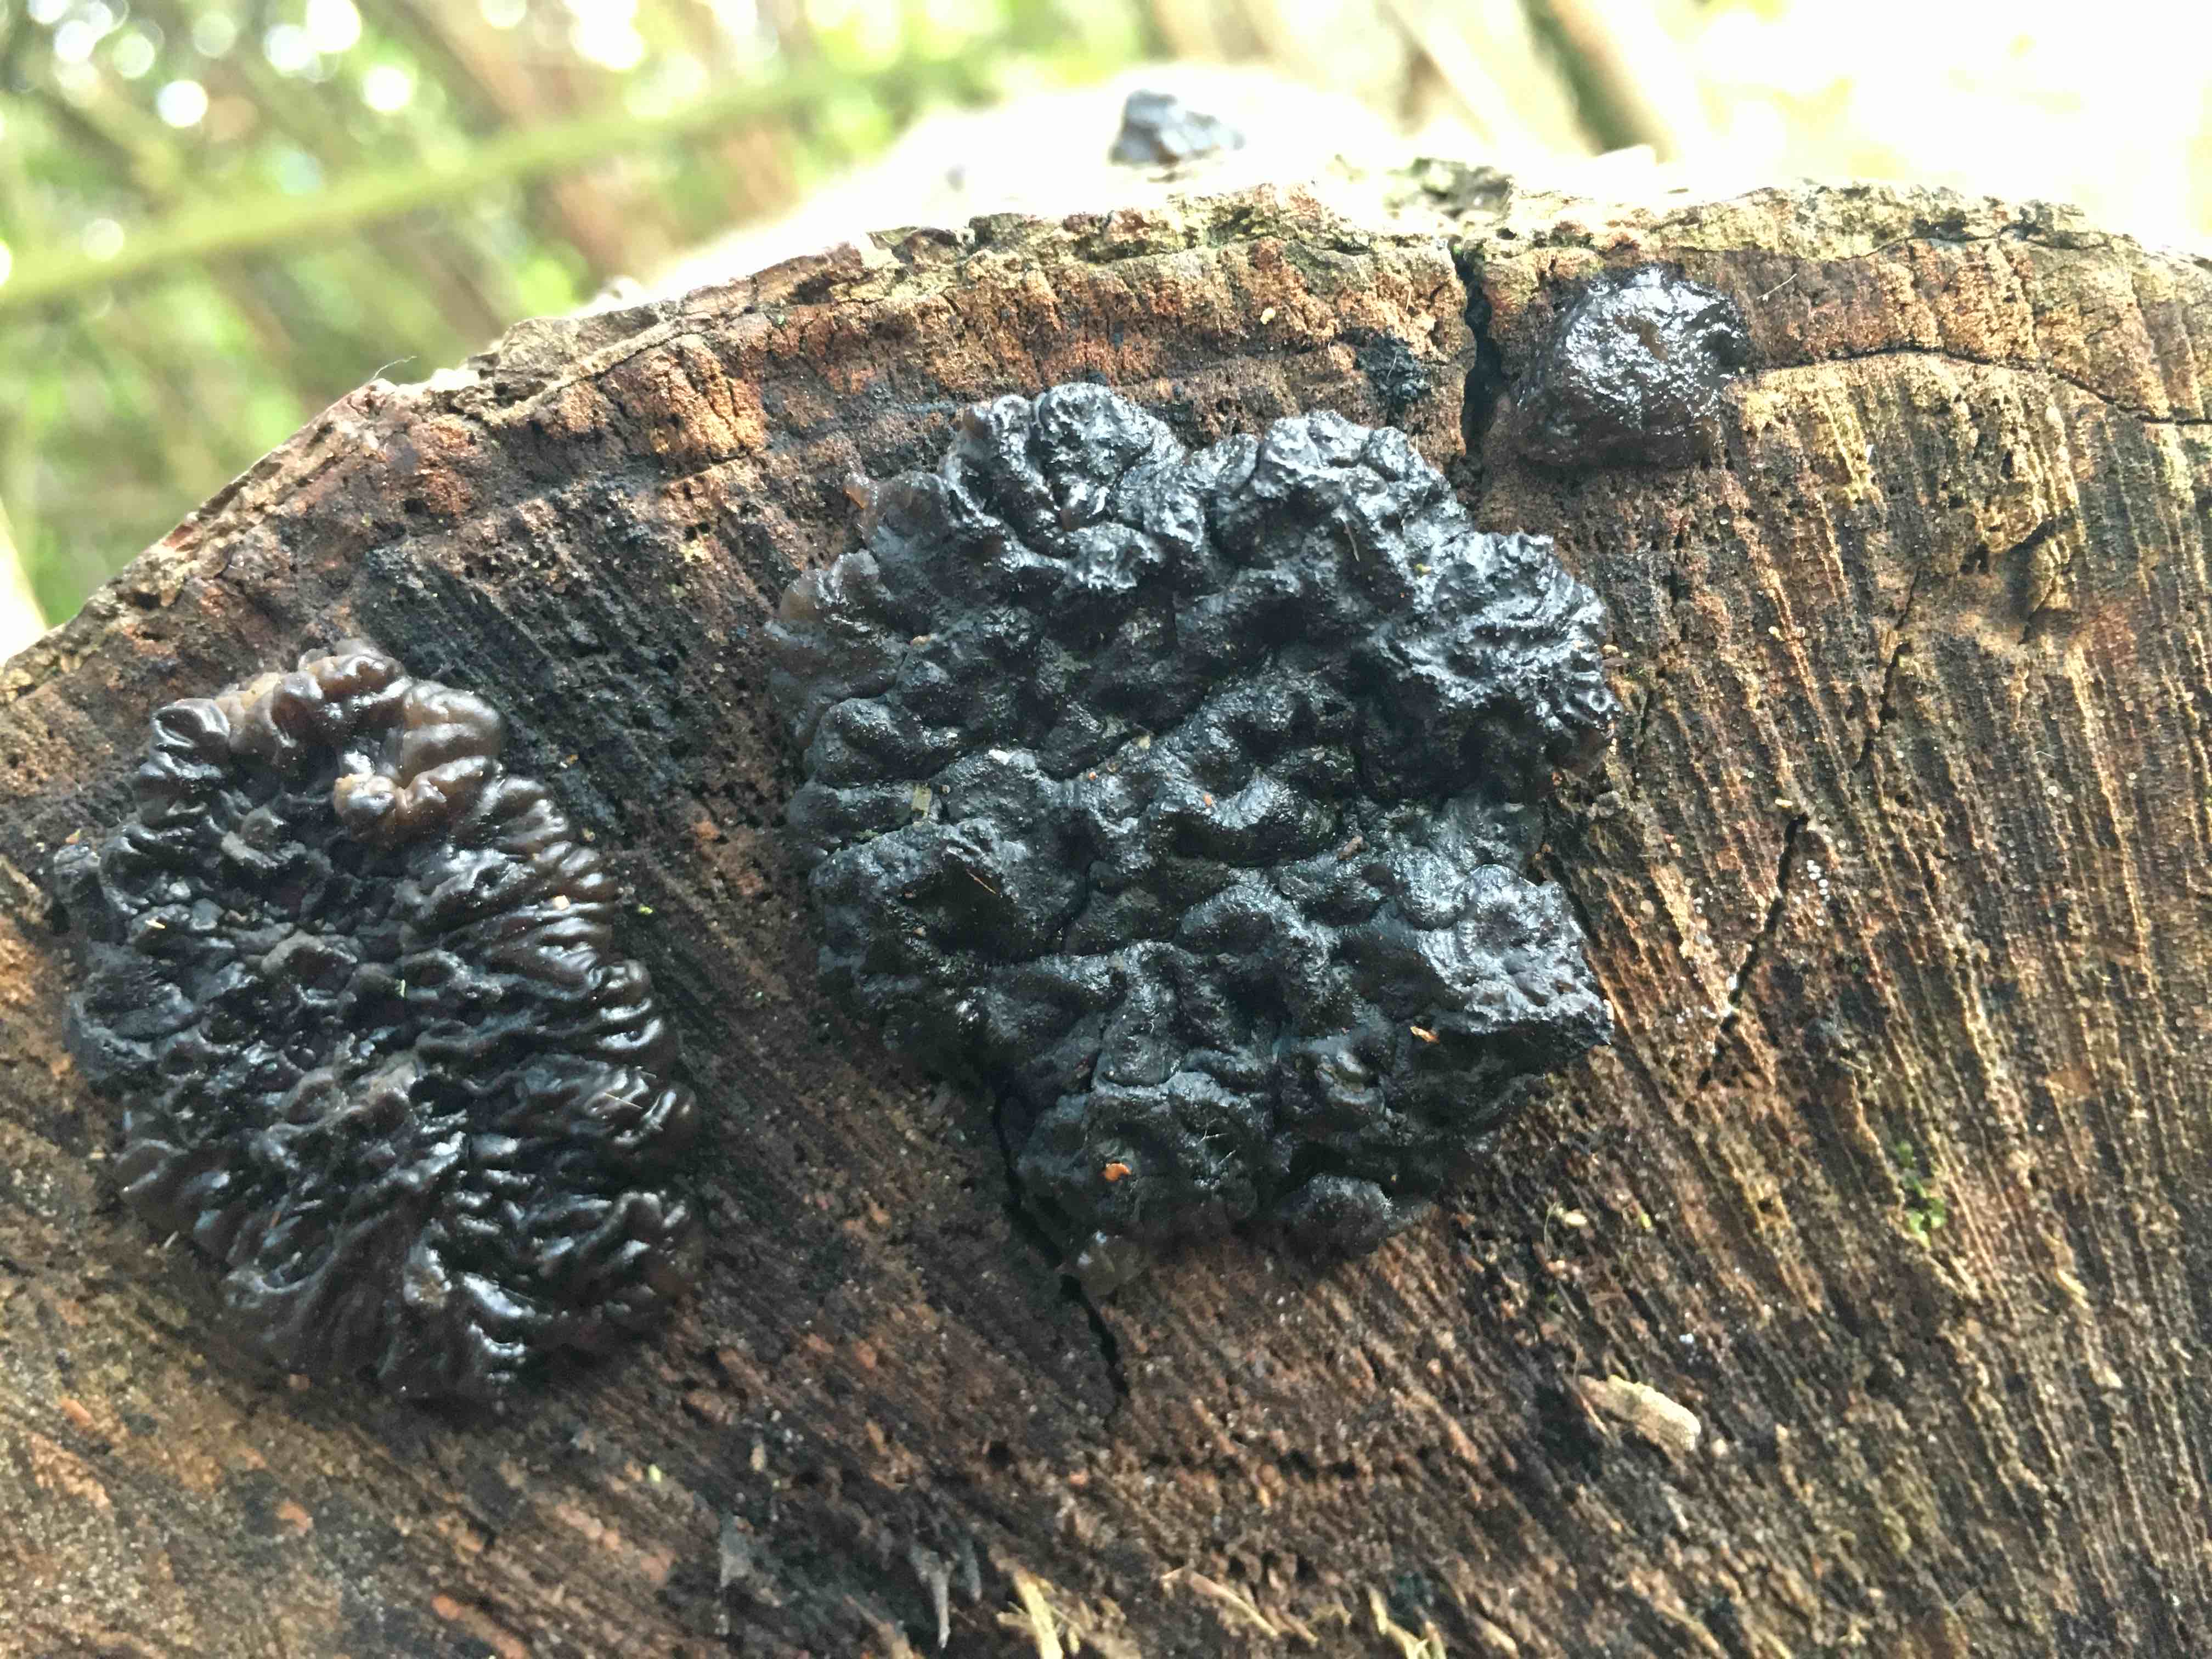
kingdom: Fungi
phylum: Basidiomycota
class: Agaricomycetes
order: Auriculariales
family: Auriculariaceae
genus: Exidia
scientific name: Exidia nigricans
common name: almindelig bævretop
